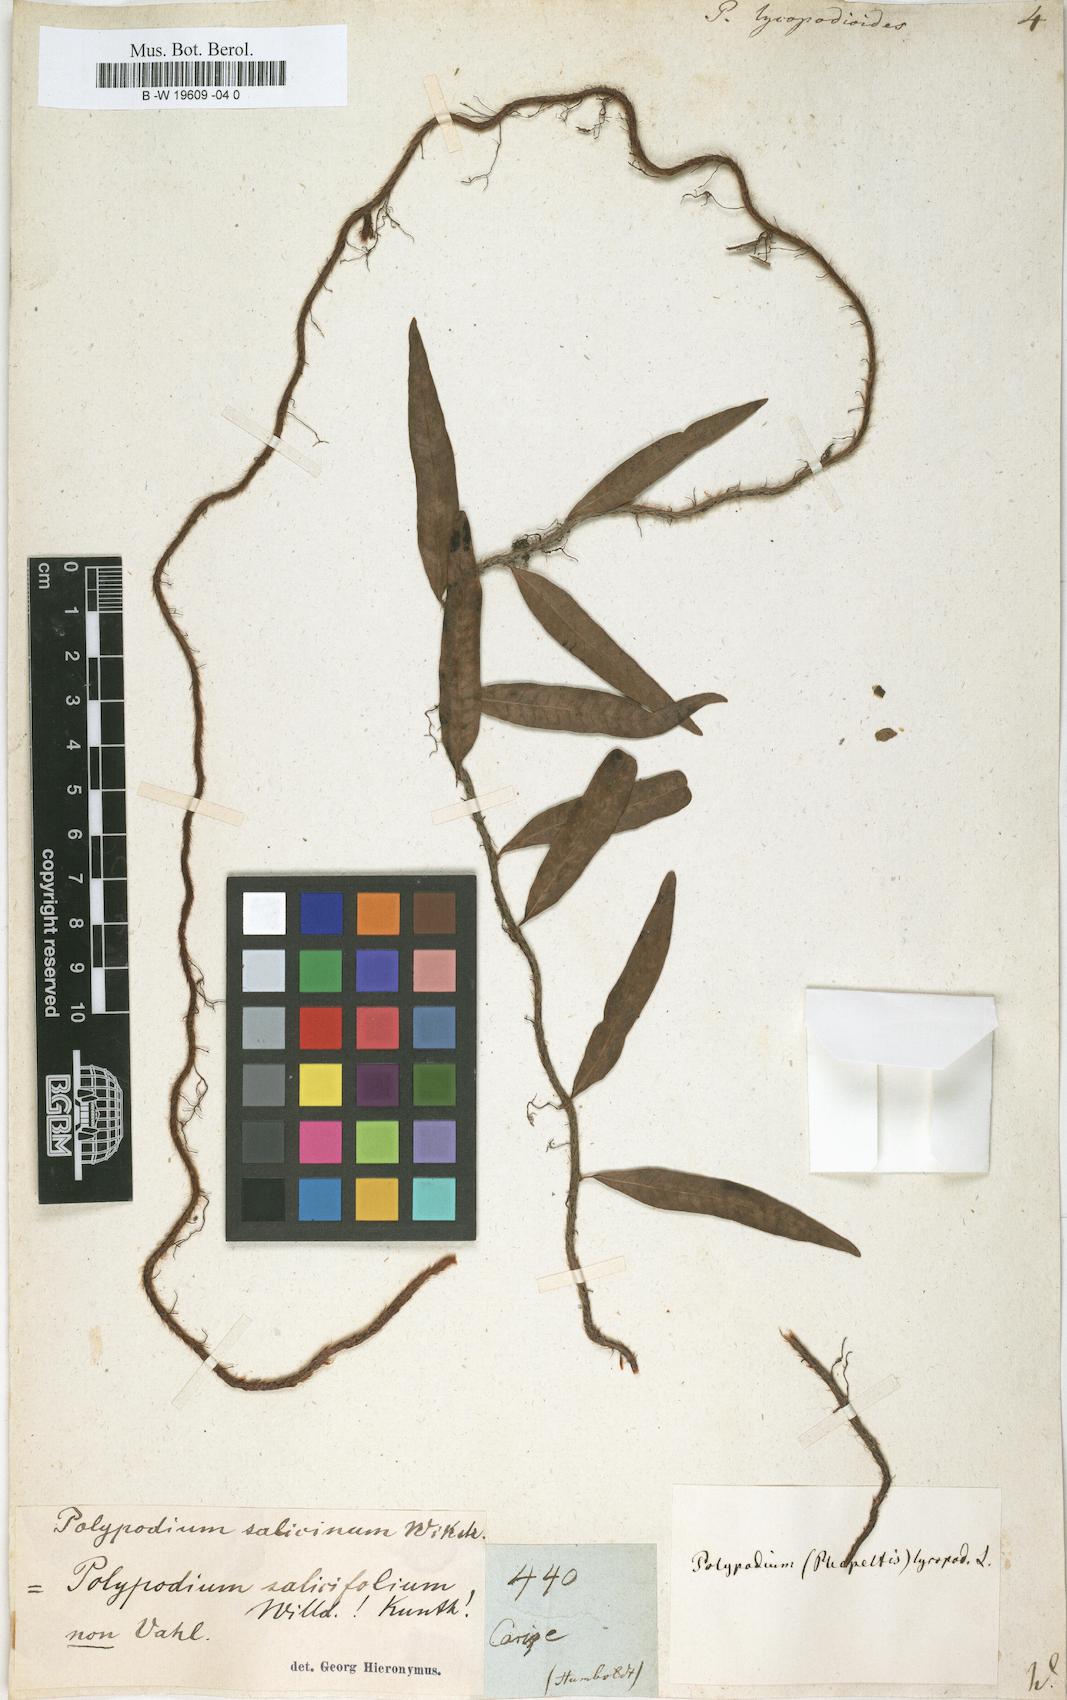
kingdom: Plantae
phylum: Tracheophyta
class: Polypodiopsida
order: Polypodiales
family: Polypodiaceae
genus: Microgramma
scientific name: Microgramma lycopodioides
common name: Bastard catclaw
